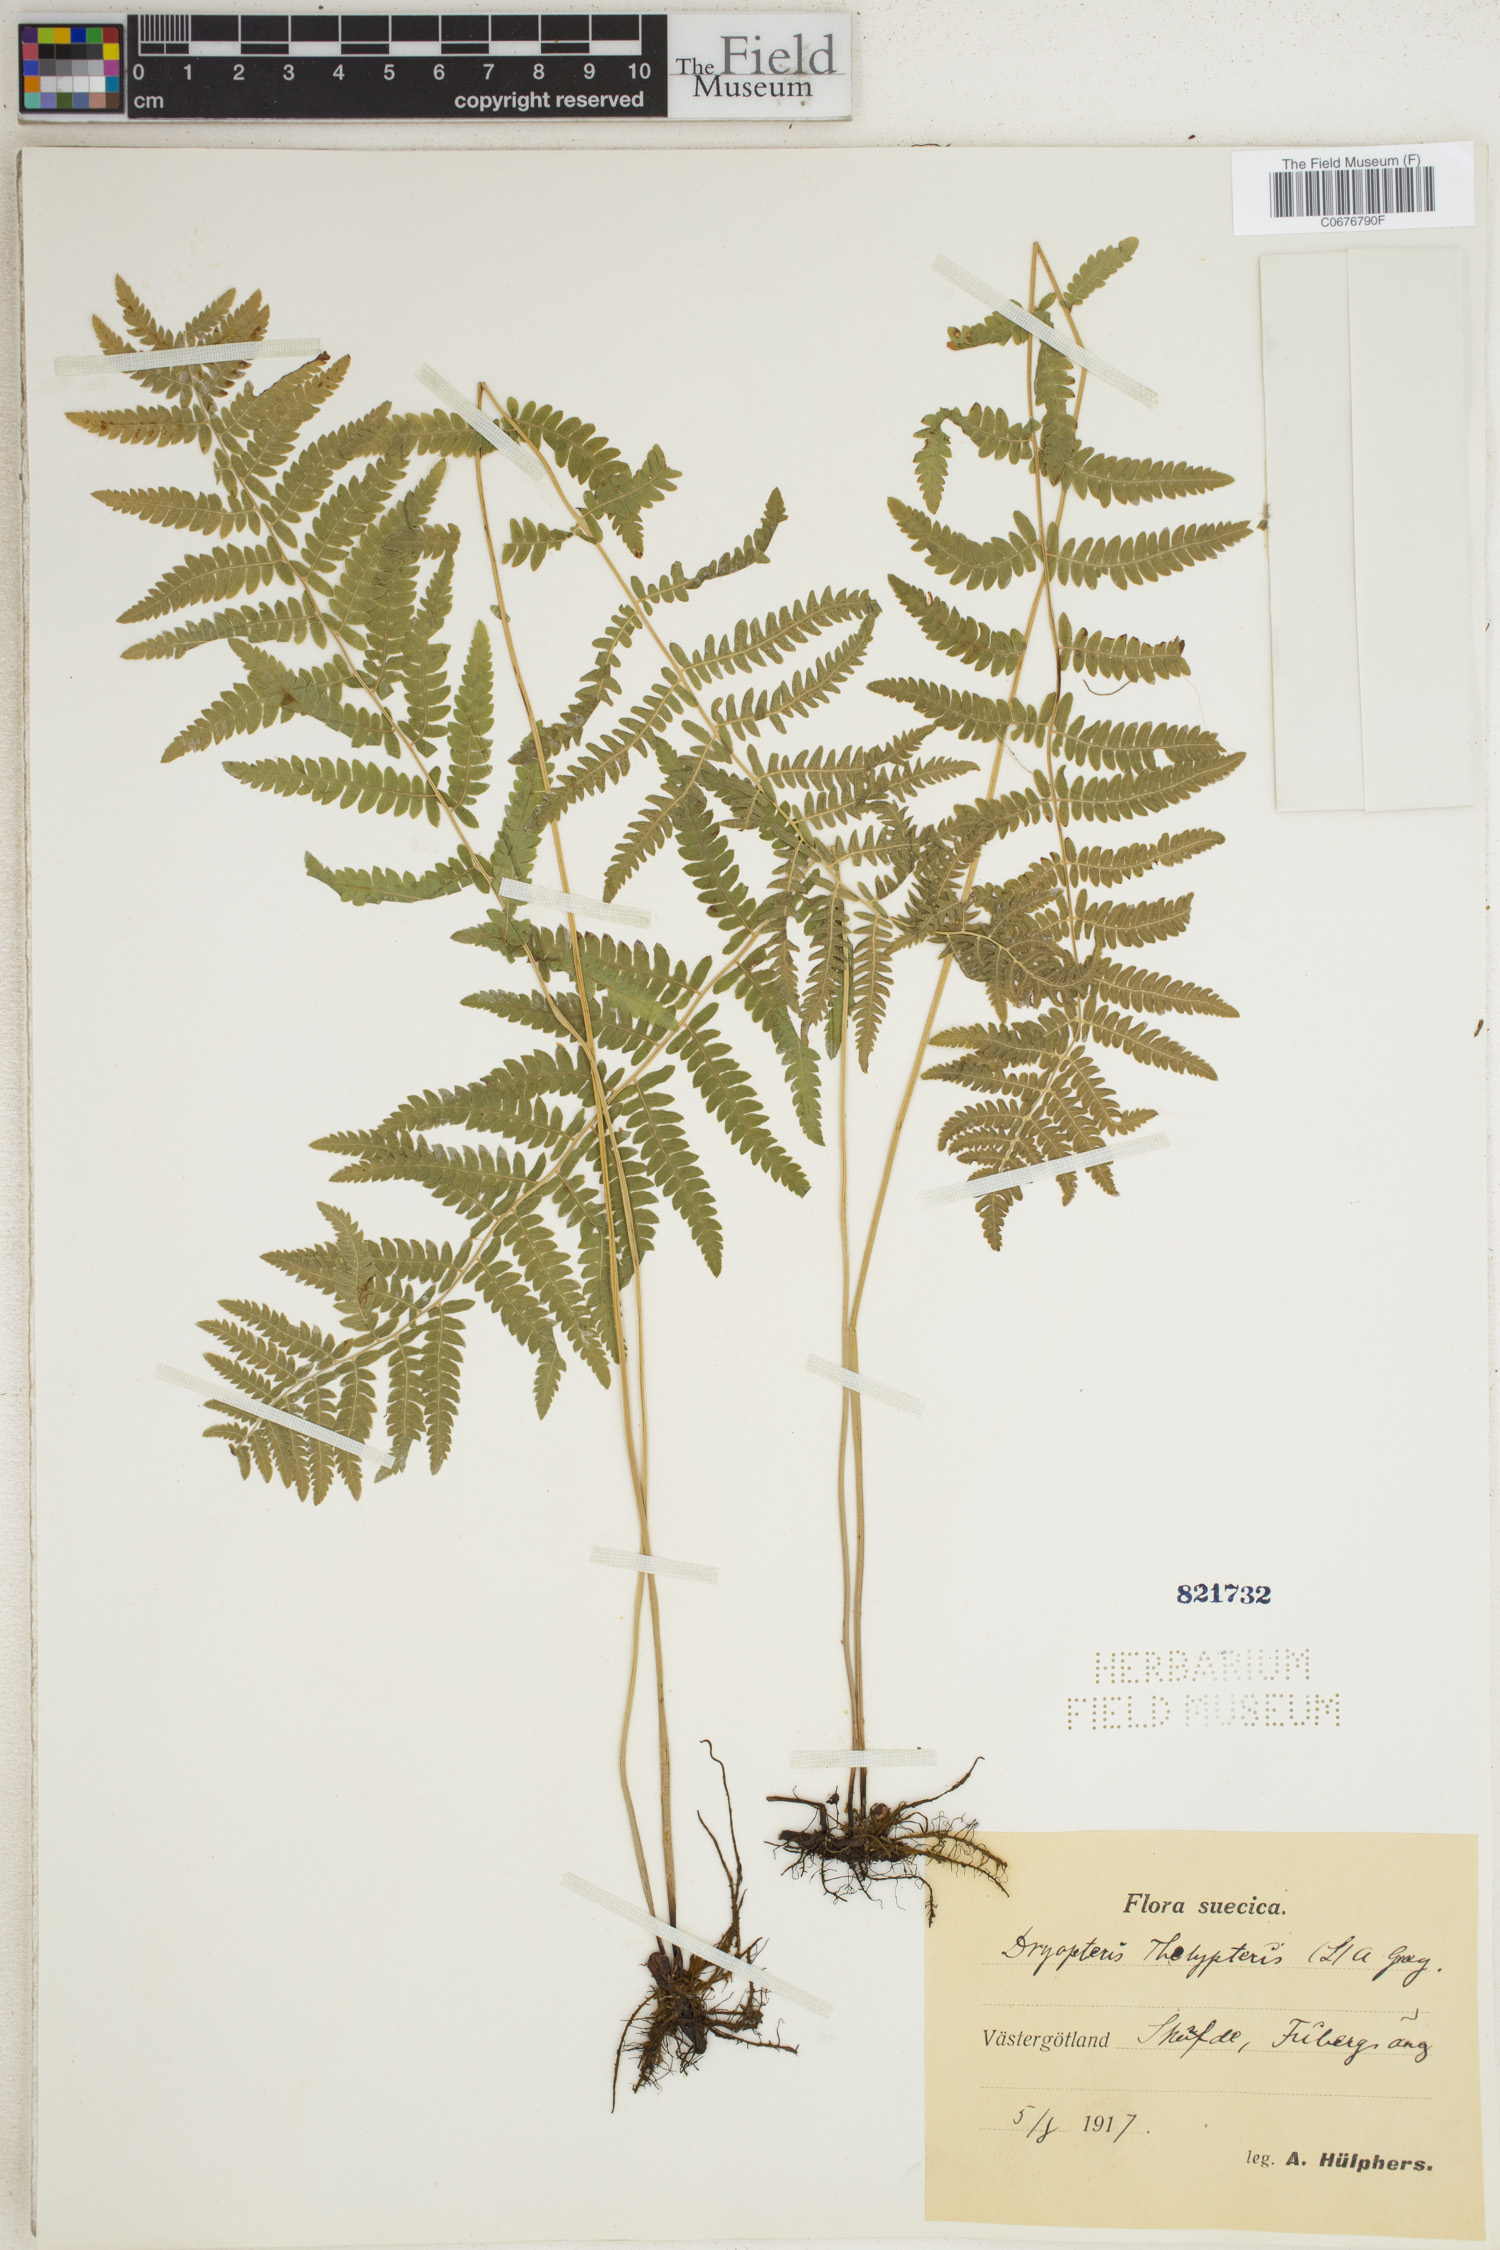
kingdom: Plantae
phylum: Tracheophyta
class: Polypodiopsida
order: Polypodiales
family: Thelypteridaceae
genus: Thelypteris
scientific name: Thelypteris palustris
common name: Marsh fern
